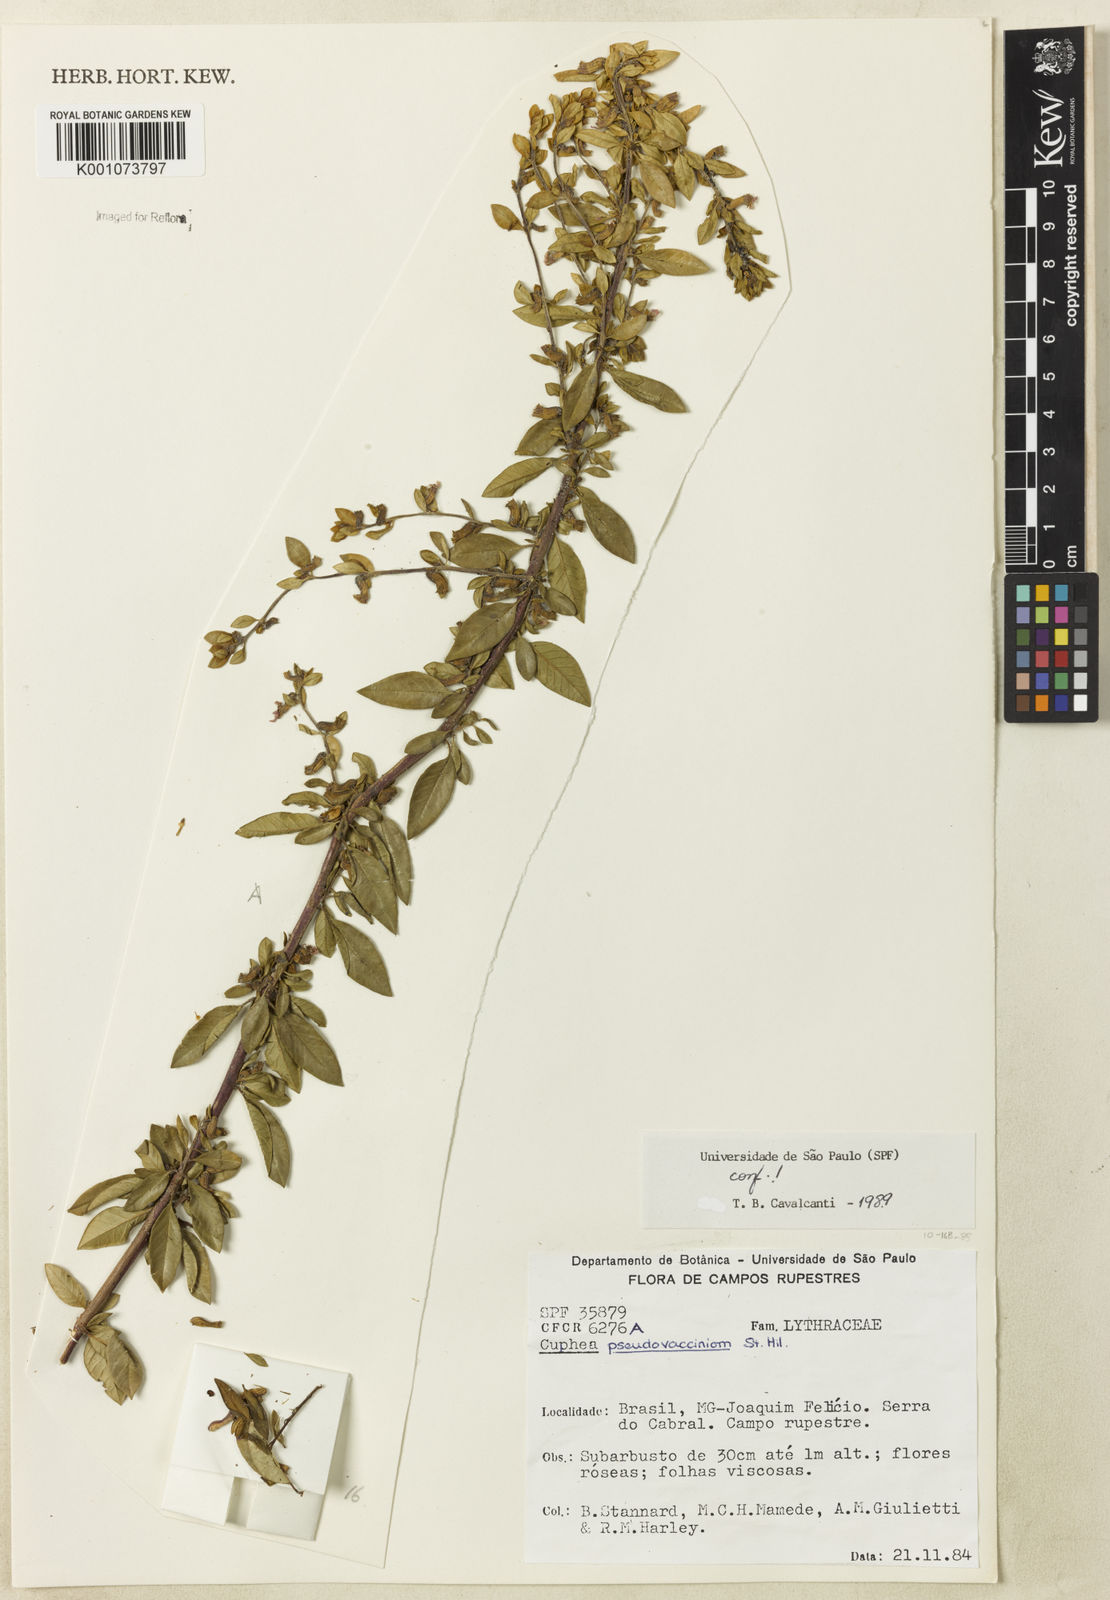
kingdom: Plantae
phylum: Tracheophyta
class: Magnoliopsida
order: Myrtales
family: Lythraceae
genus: Cuphea
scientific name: Cuphea pseudovaccinium
